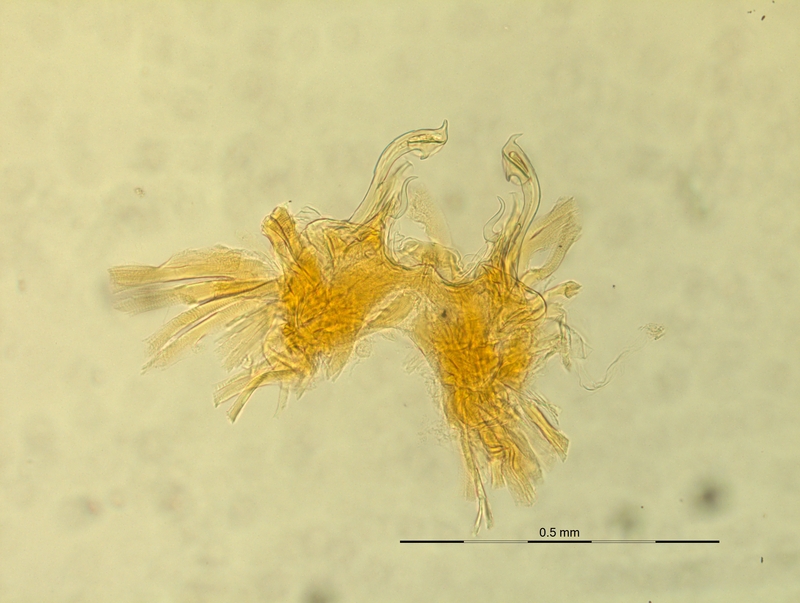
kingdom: Animalia
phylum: Arthropoda
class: Diplopoda
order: Chordeumatida
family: Craspedosomatidae
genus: Ochogona
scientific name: Ochogona regalis
